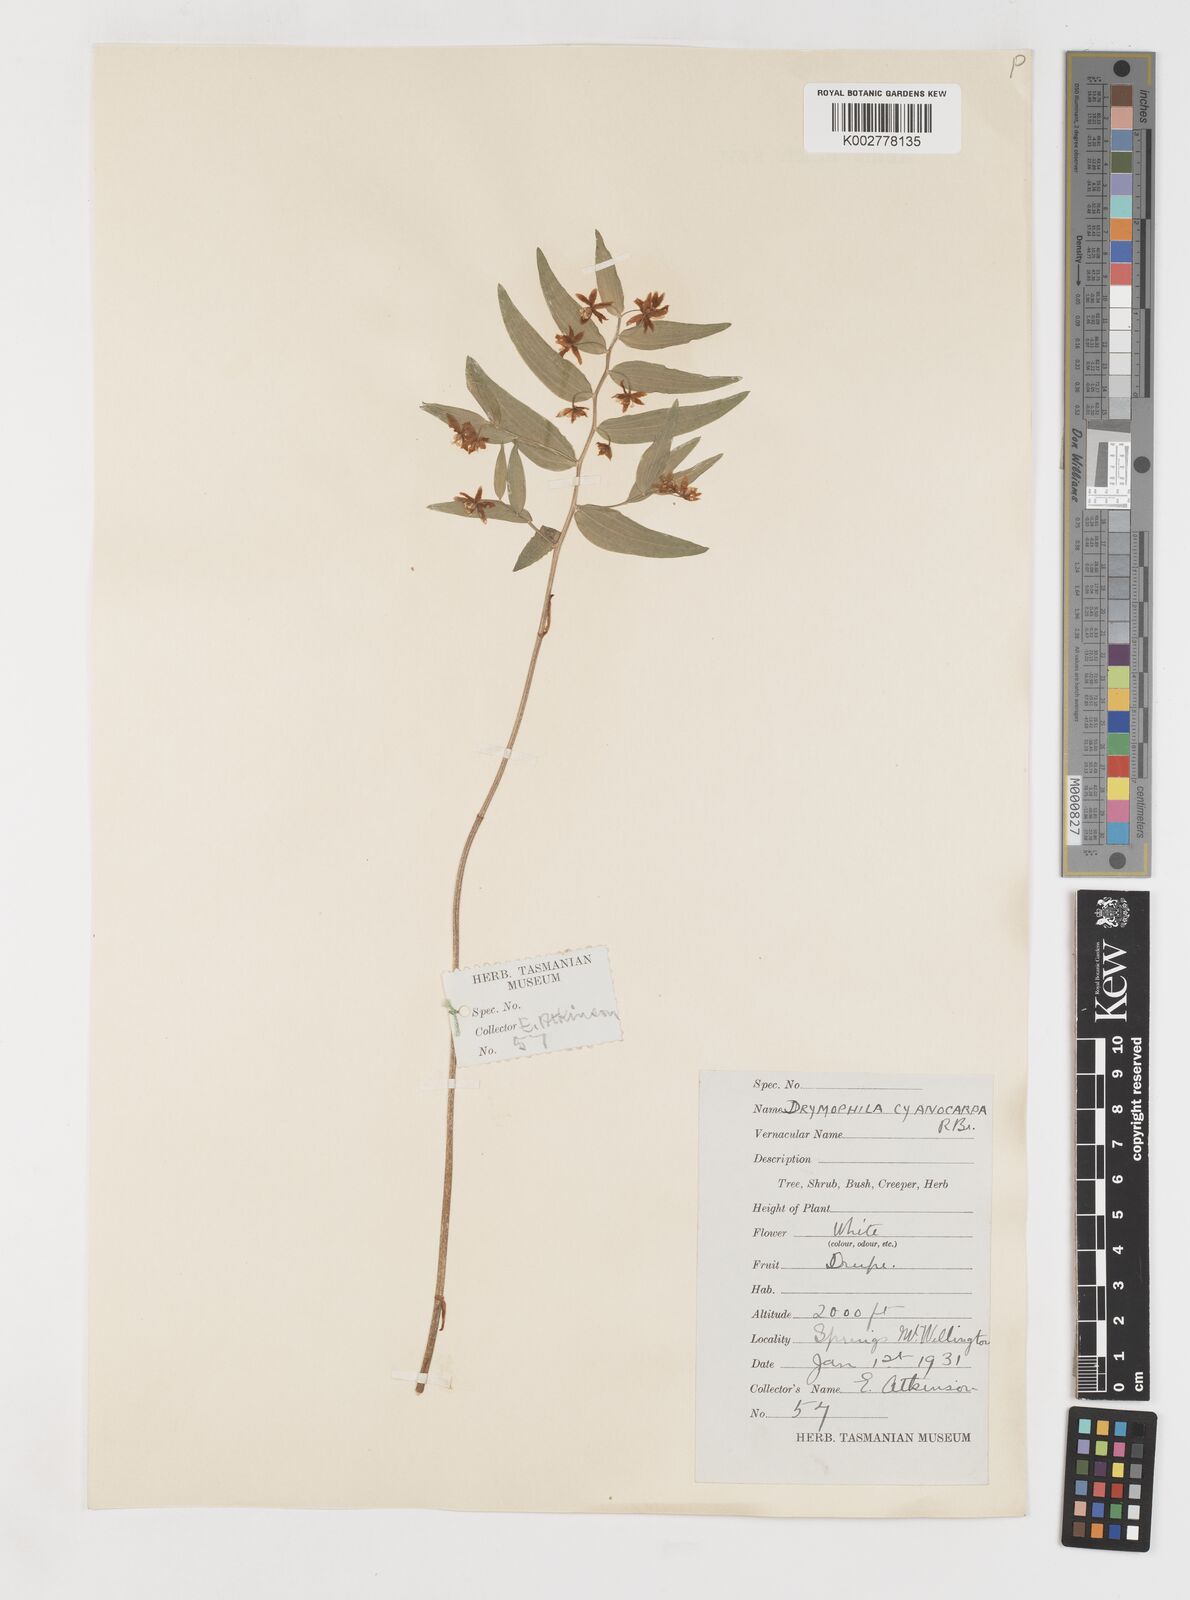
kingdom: Plantae
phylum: Tracheophyta
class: Liliopsida
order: Liliales
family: Alstroemeriaceae
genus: Drymophila
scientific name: Drymophila cyanocarpa
